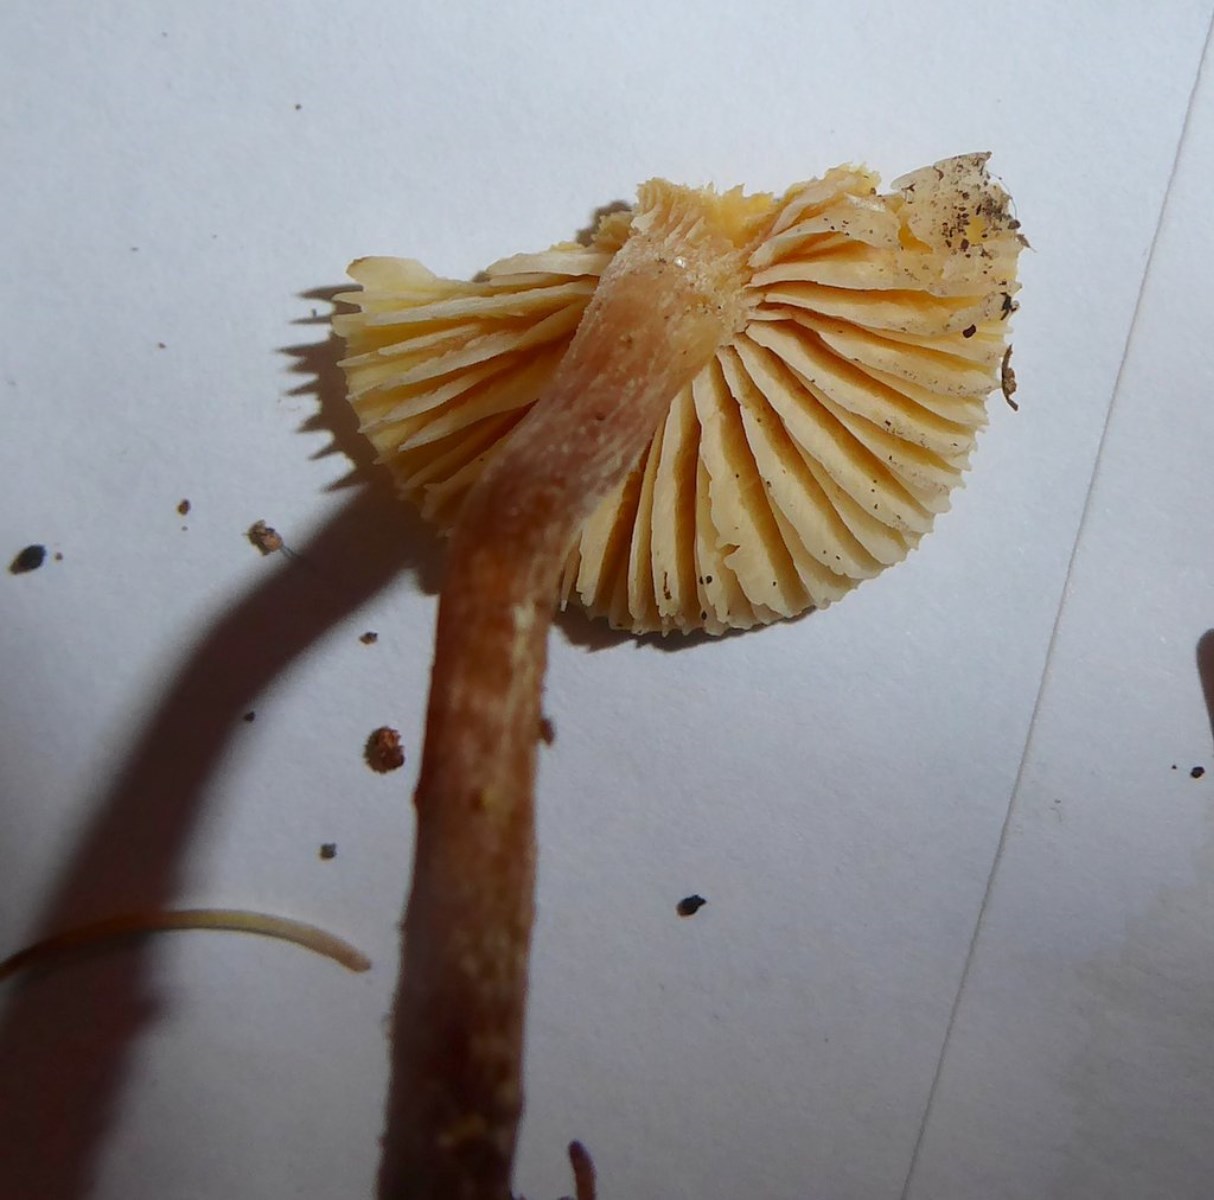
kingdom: Fungi
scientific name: Fungi
